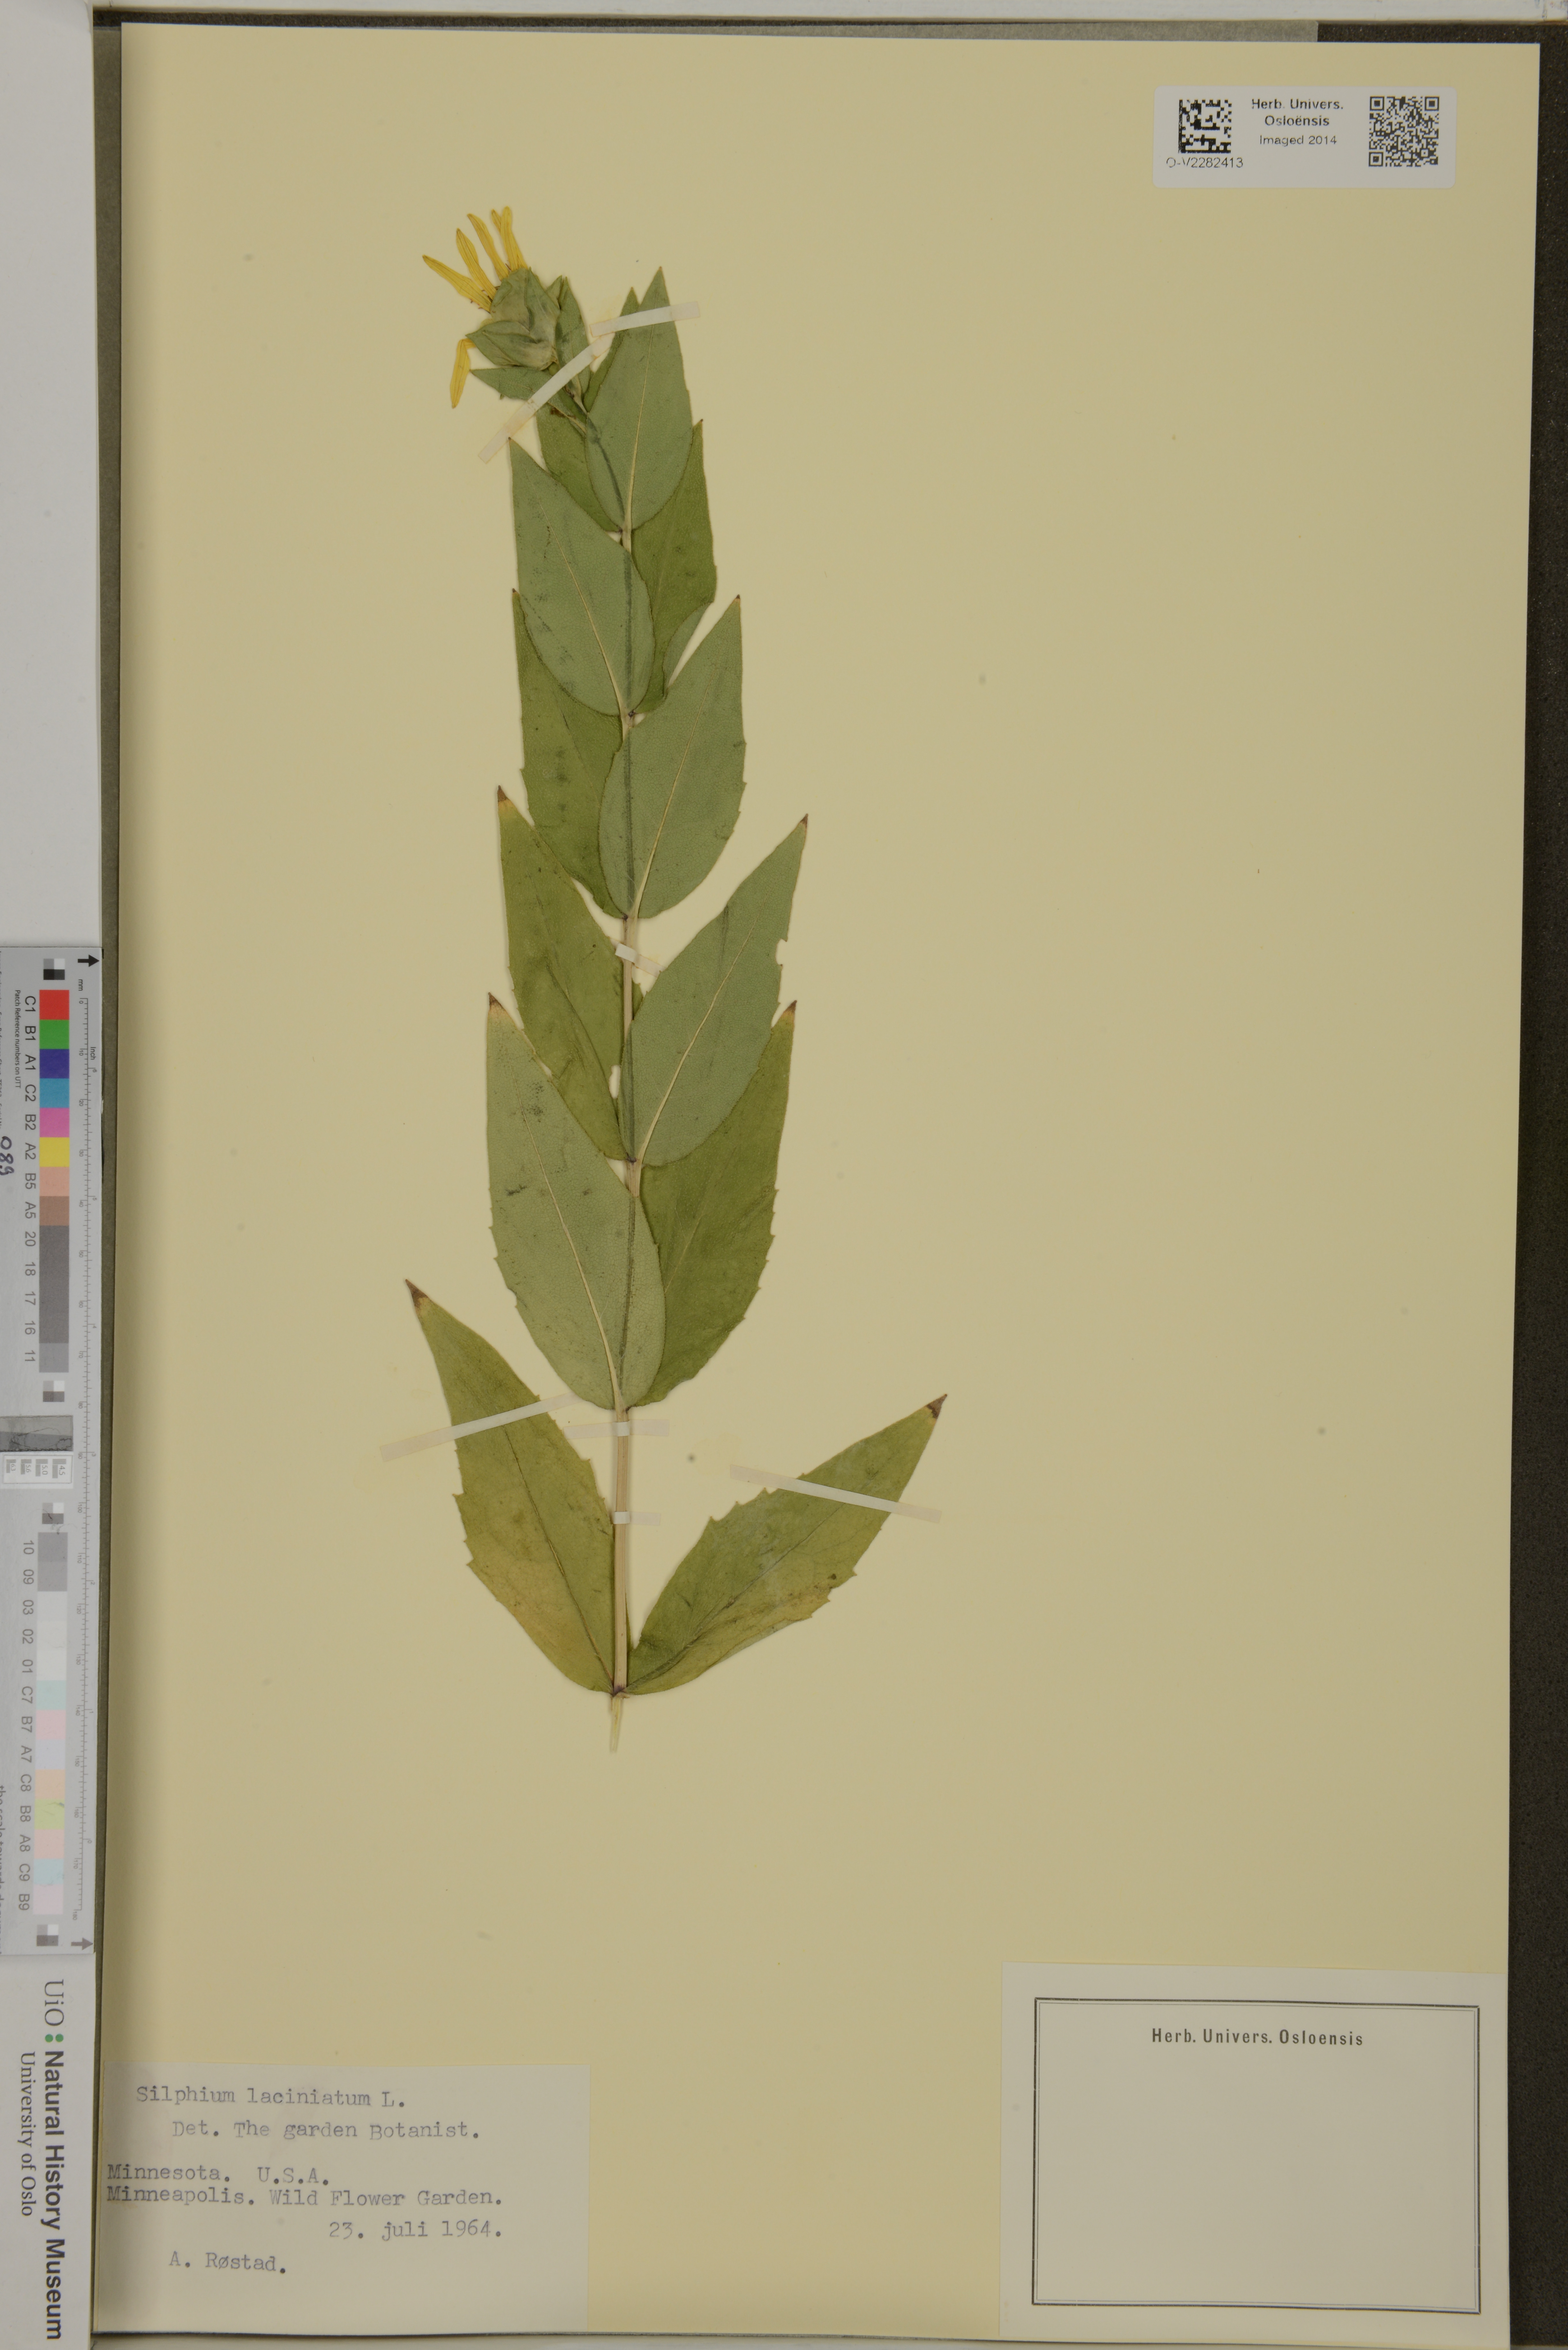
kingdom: Plantae
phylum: Tracheophyta
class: Magnoliopsida
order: Asterales
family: Asteraceae
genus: Silphium
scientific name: Silphium laciniatum
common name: Polarplant
